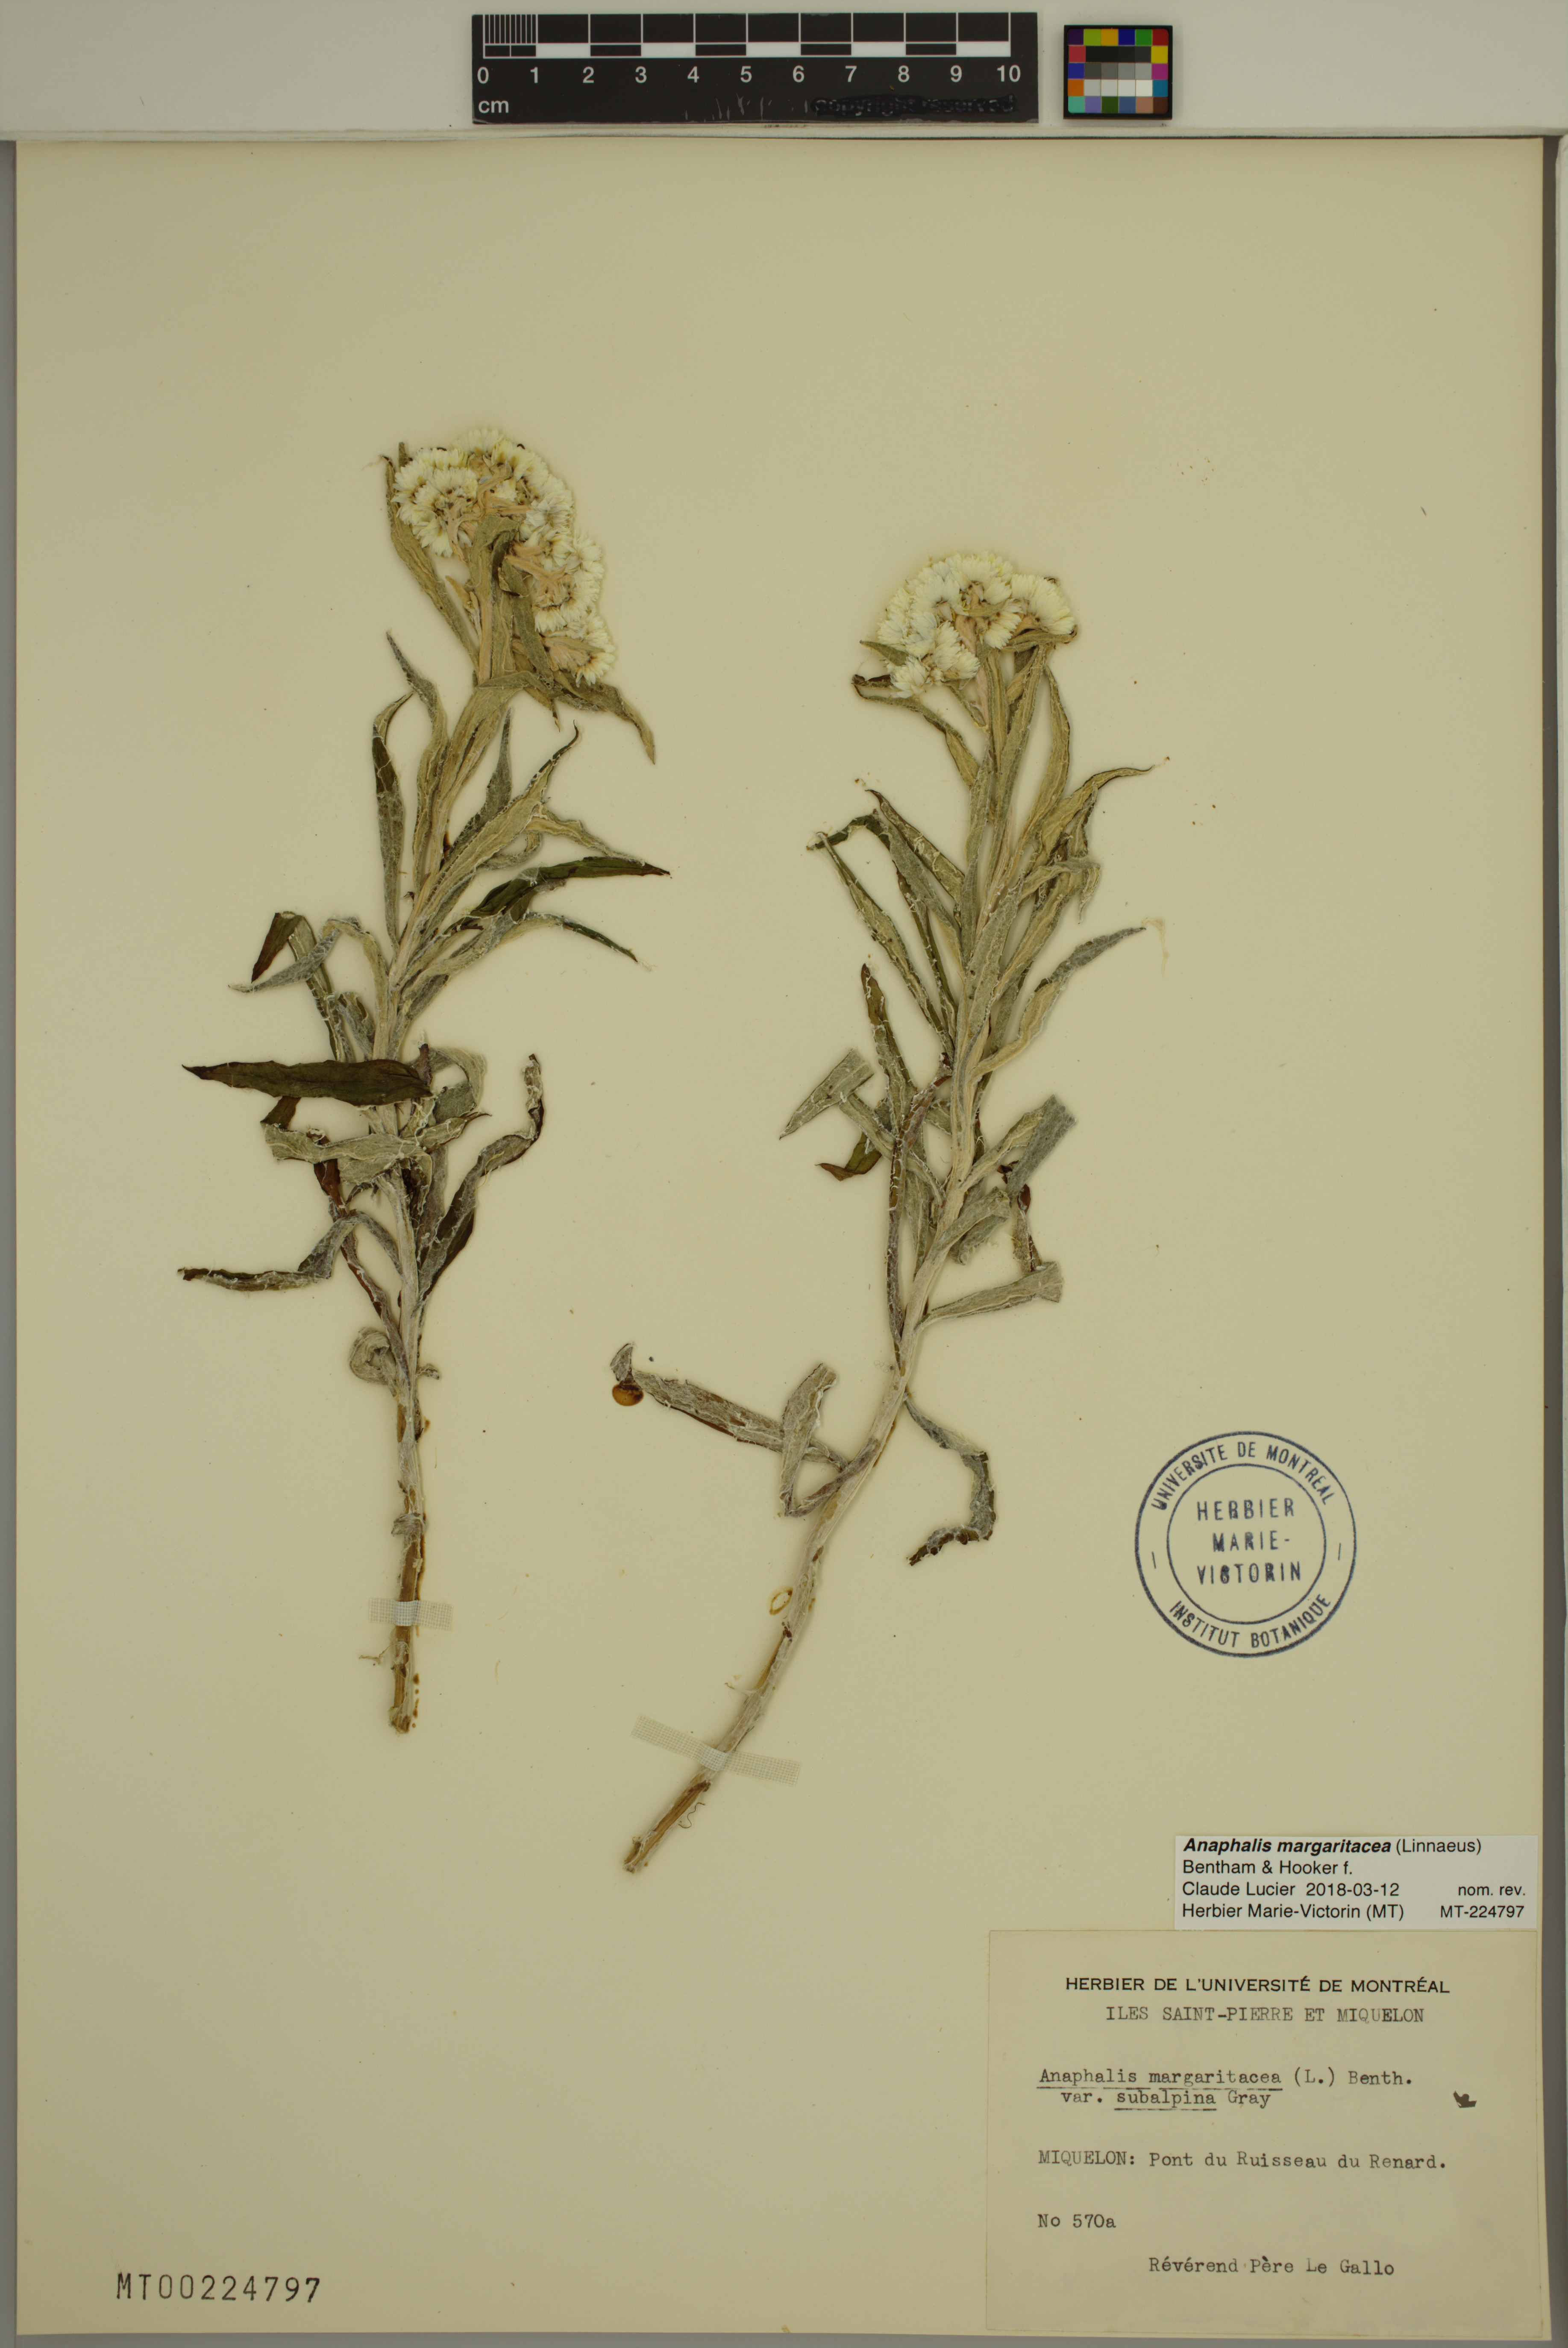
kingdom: Plantae
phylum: Tracheophyta
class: Magnoliopsida
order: Asterales
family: Asteraceae
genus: Anaphalis
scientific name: Anaphalis margaritacea
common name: Pearly everlasting
